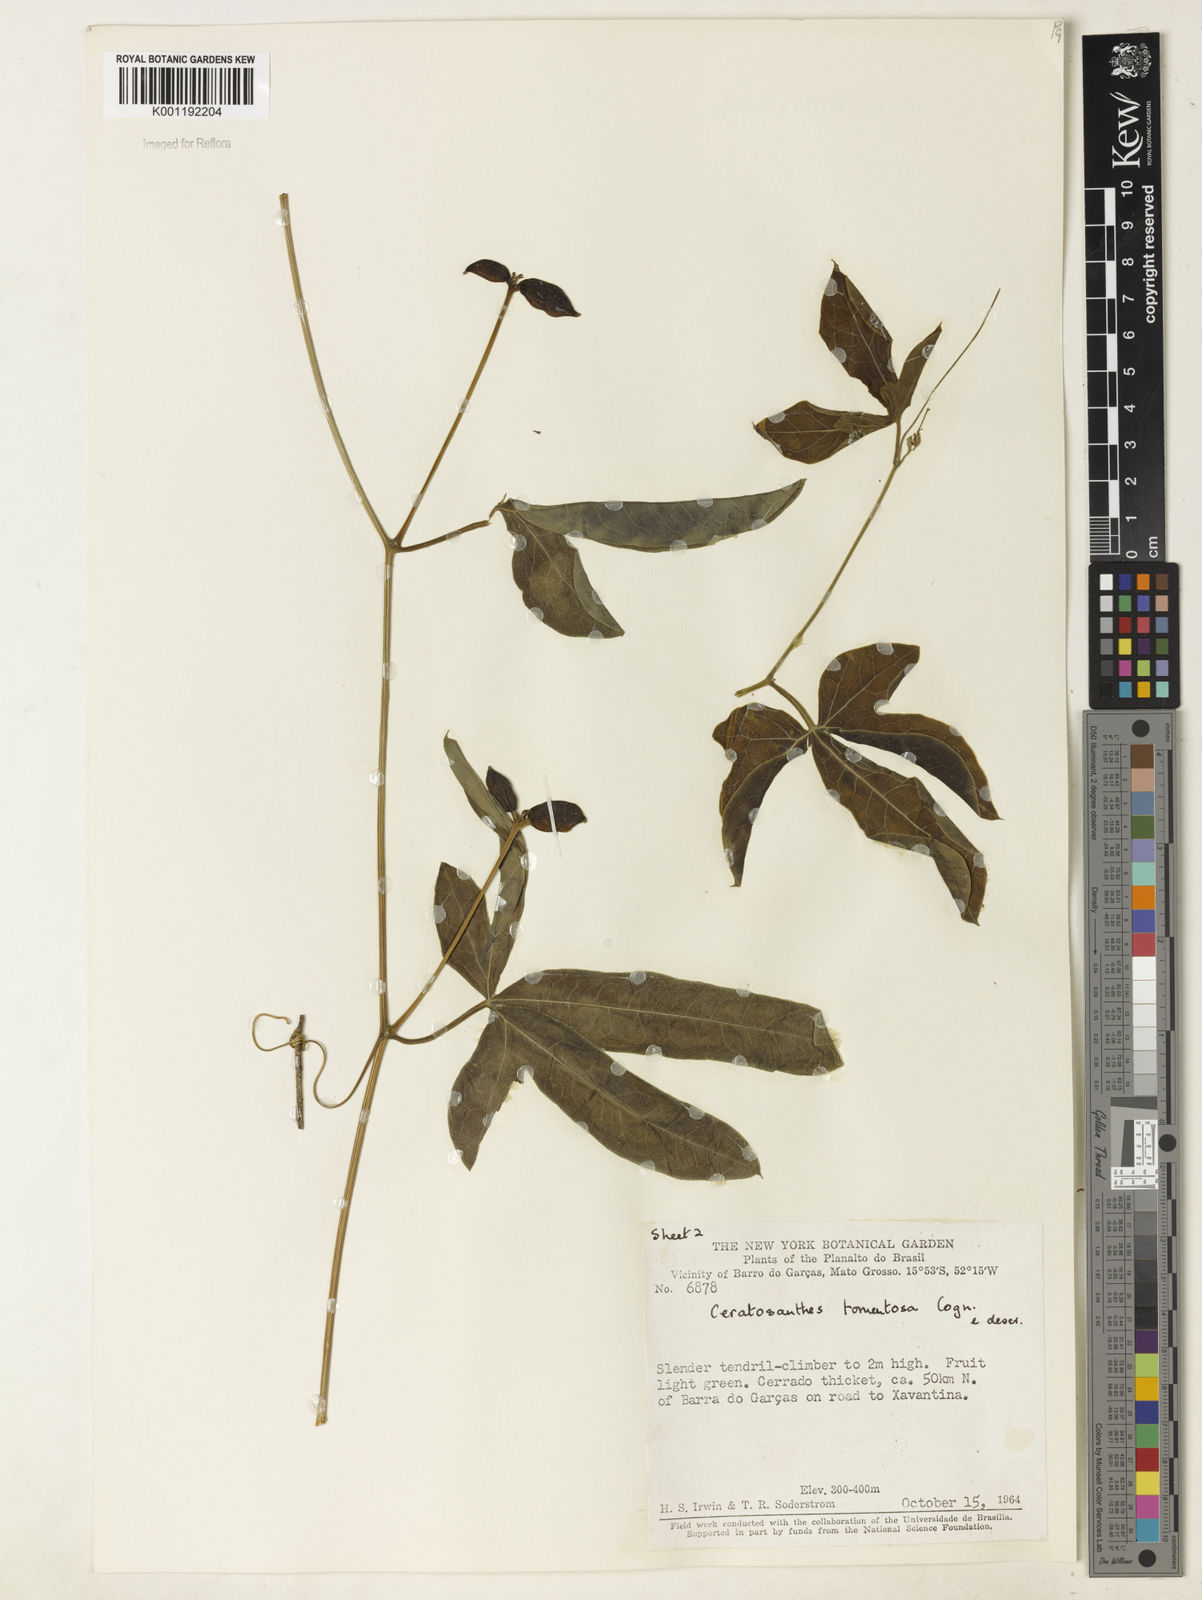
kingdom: Plantae
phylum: Tracheophyta
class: Magnoliopsida
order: Cucurbitales
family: Cucurbitaceae
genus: Ceratosanthes
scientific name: Ceratosanthes tomentosa
